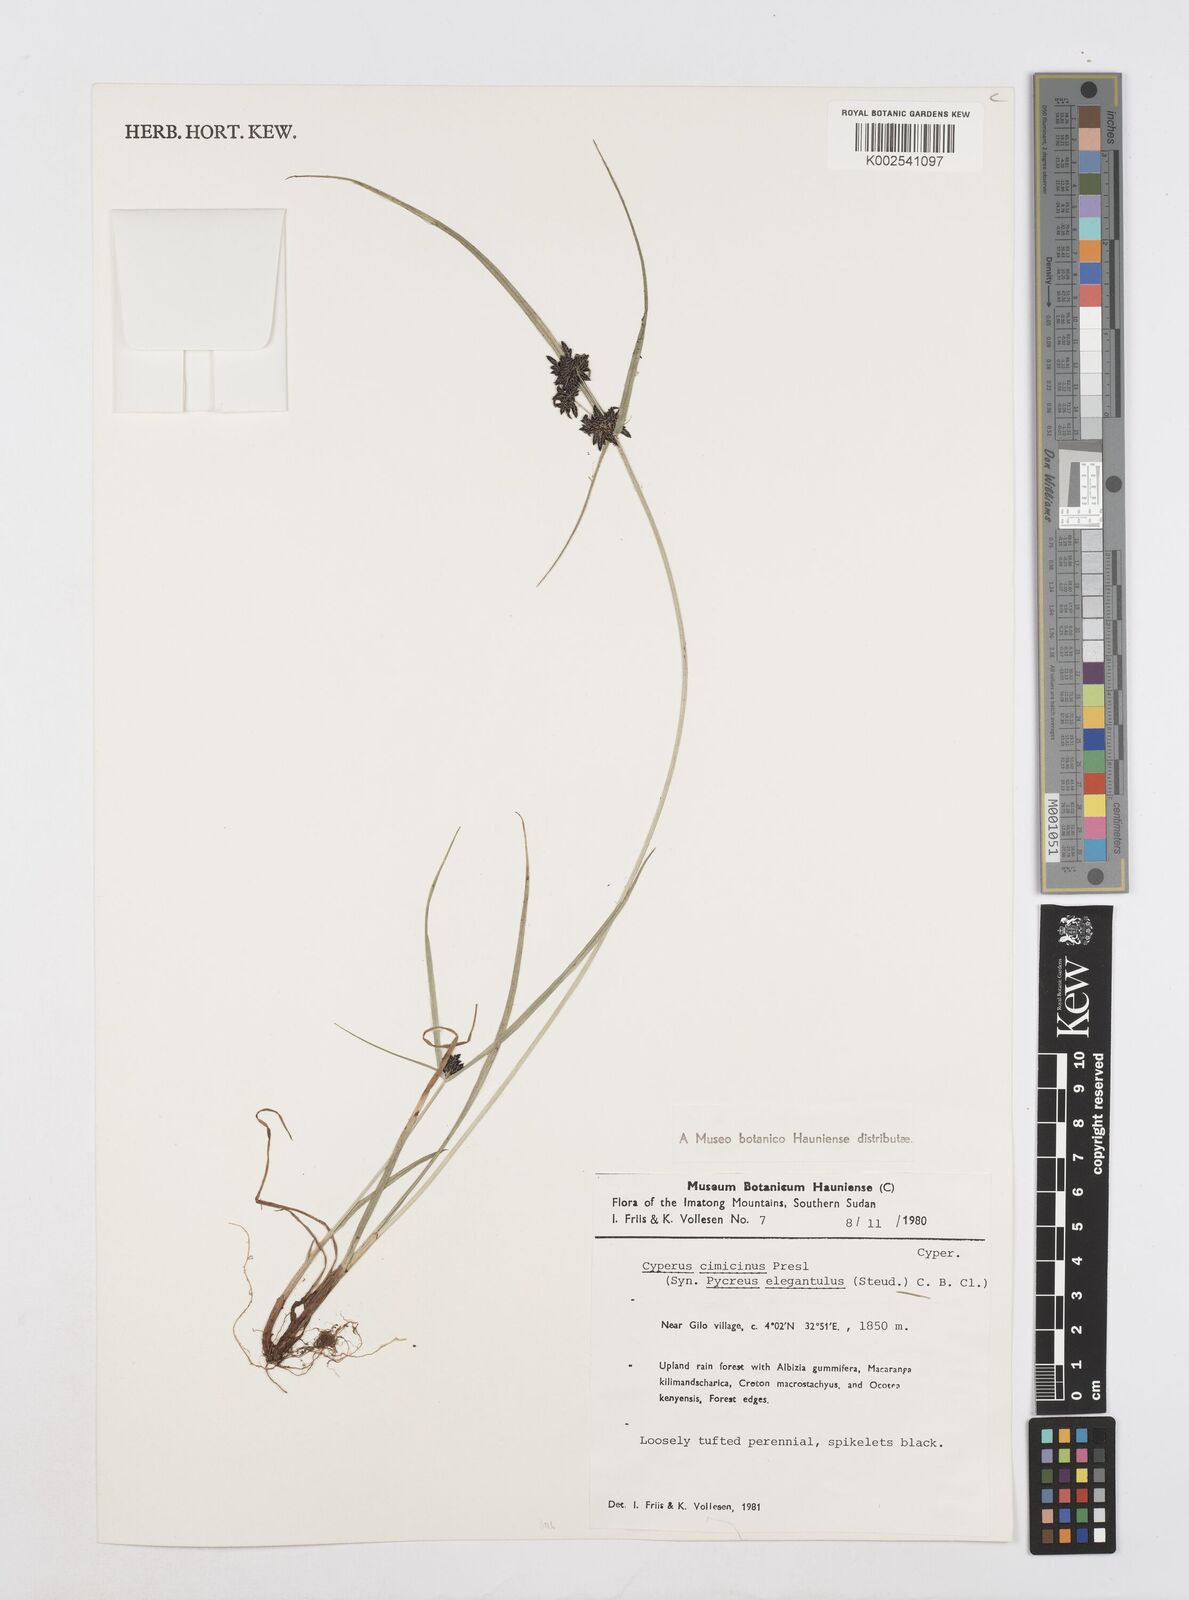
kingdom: Plantae
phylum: Tracheophyta
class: Liliopsida
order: Poales
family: Cyperaceae
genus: Cyperus
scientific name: Cyperus elegantulus
